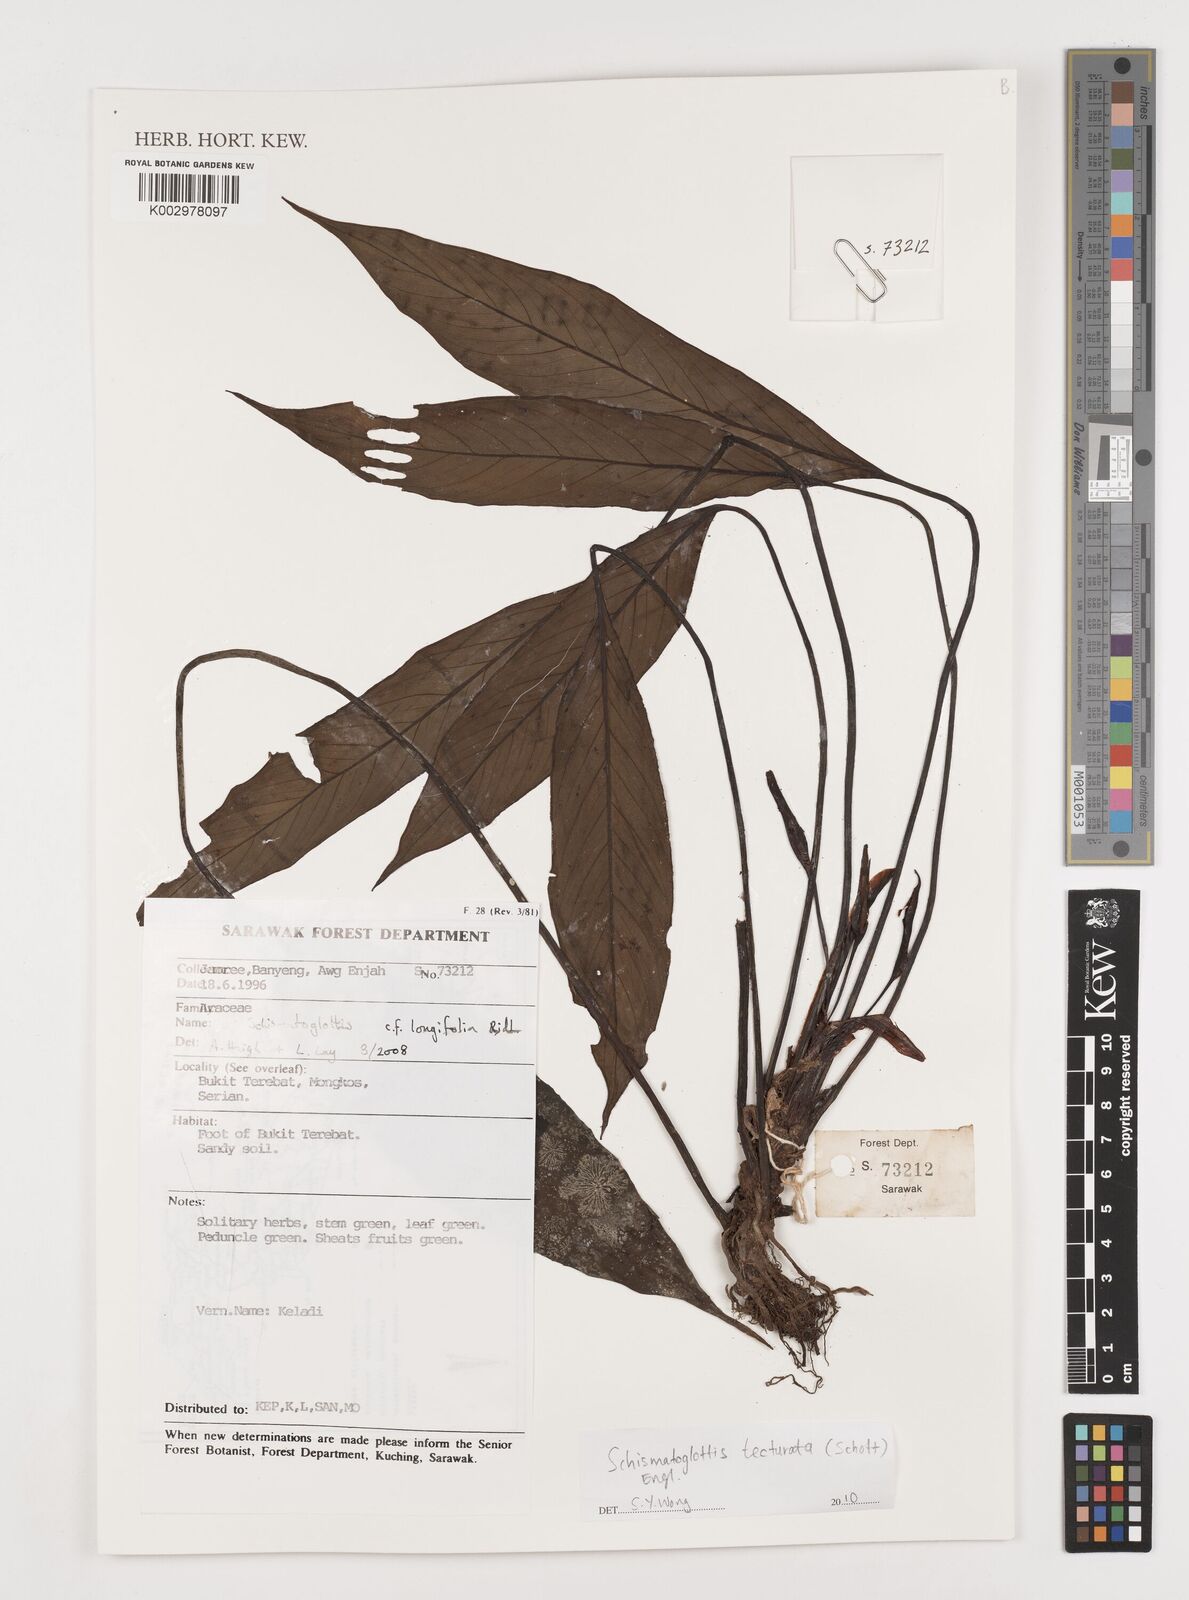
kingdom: Plantae
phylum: Tracheophyta
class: Liliopsida
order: Zingiberales
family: Costaceae
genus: Colobogynium
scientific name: Colobogynium variegatum
